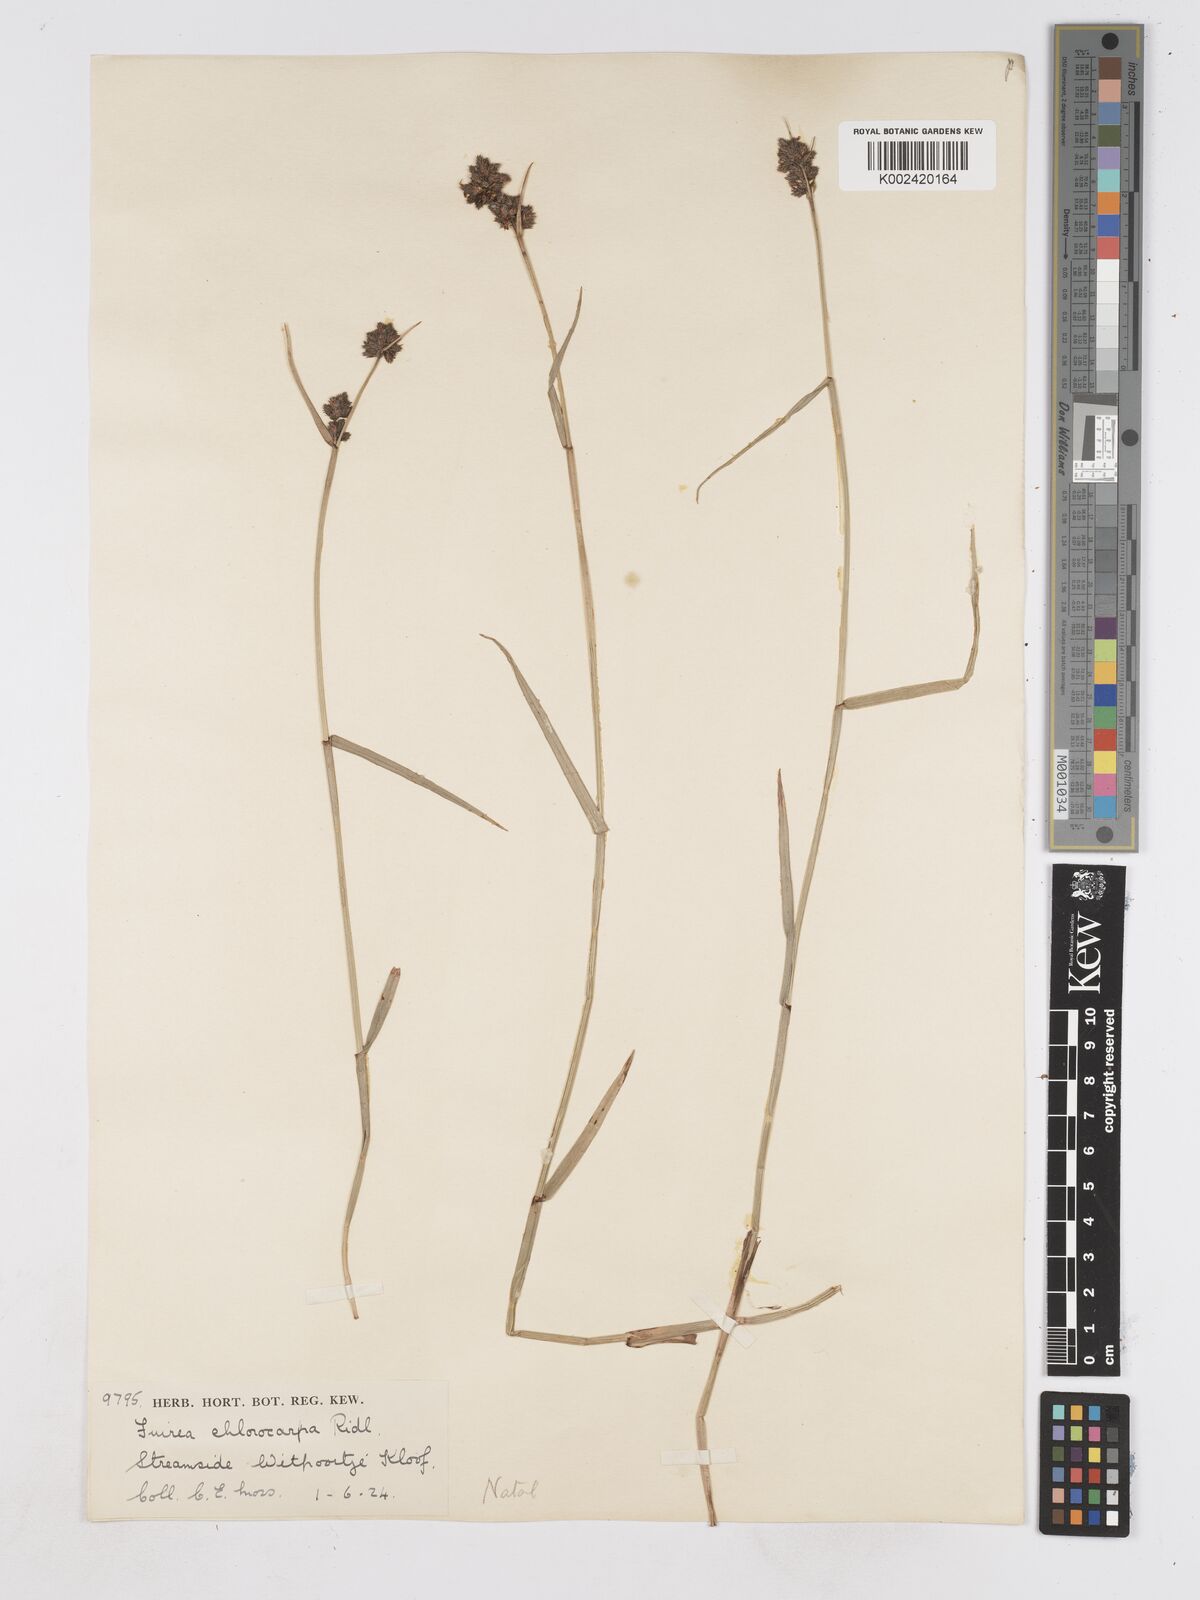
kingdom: Plantae
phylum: Tracheophyta
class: Liliopsida
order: Poales
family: Cyperaceae
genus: Fuirena
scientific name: Fuirena stricta
